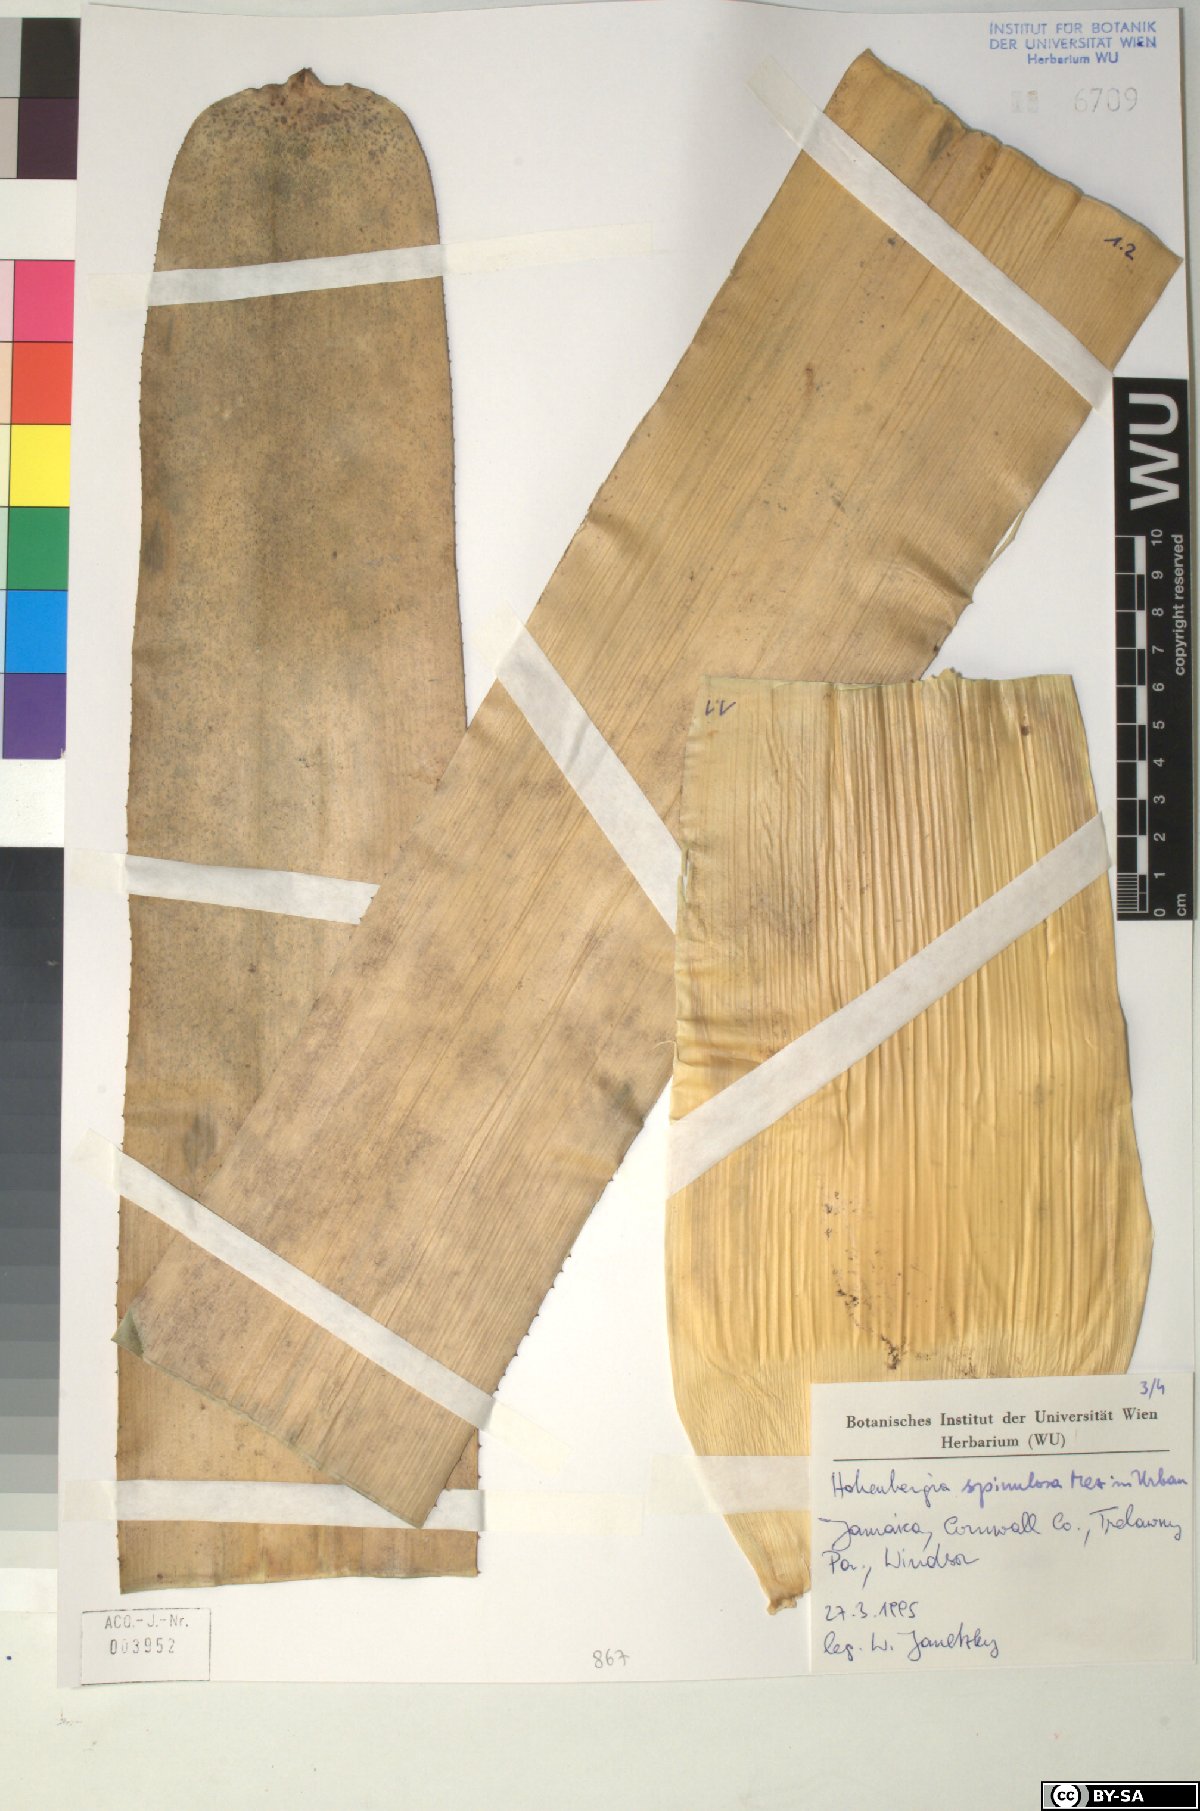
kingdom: Plantae
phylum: Tracheophyta
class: Liliopsida
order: Poales
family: Bromeliaceae
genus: Wittmackia
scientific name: Wittmackia spinulosa
